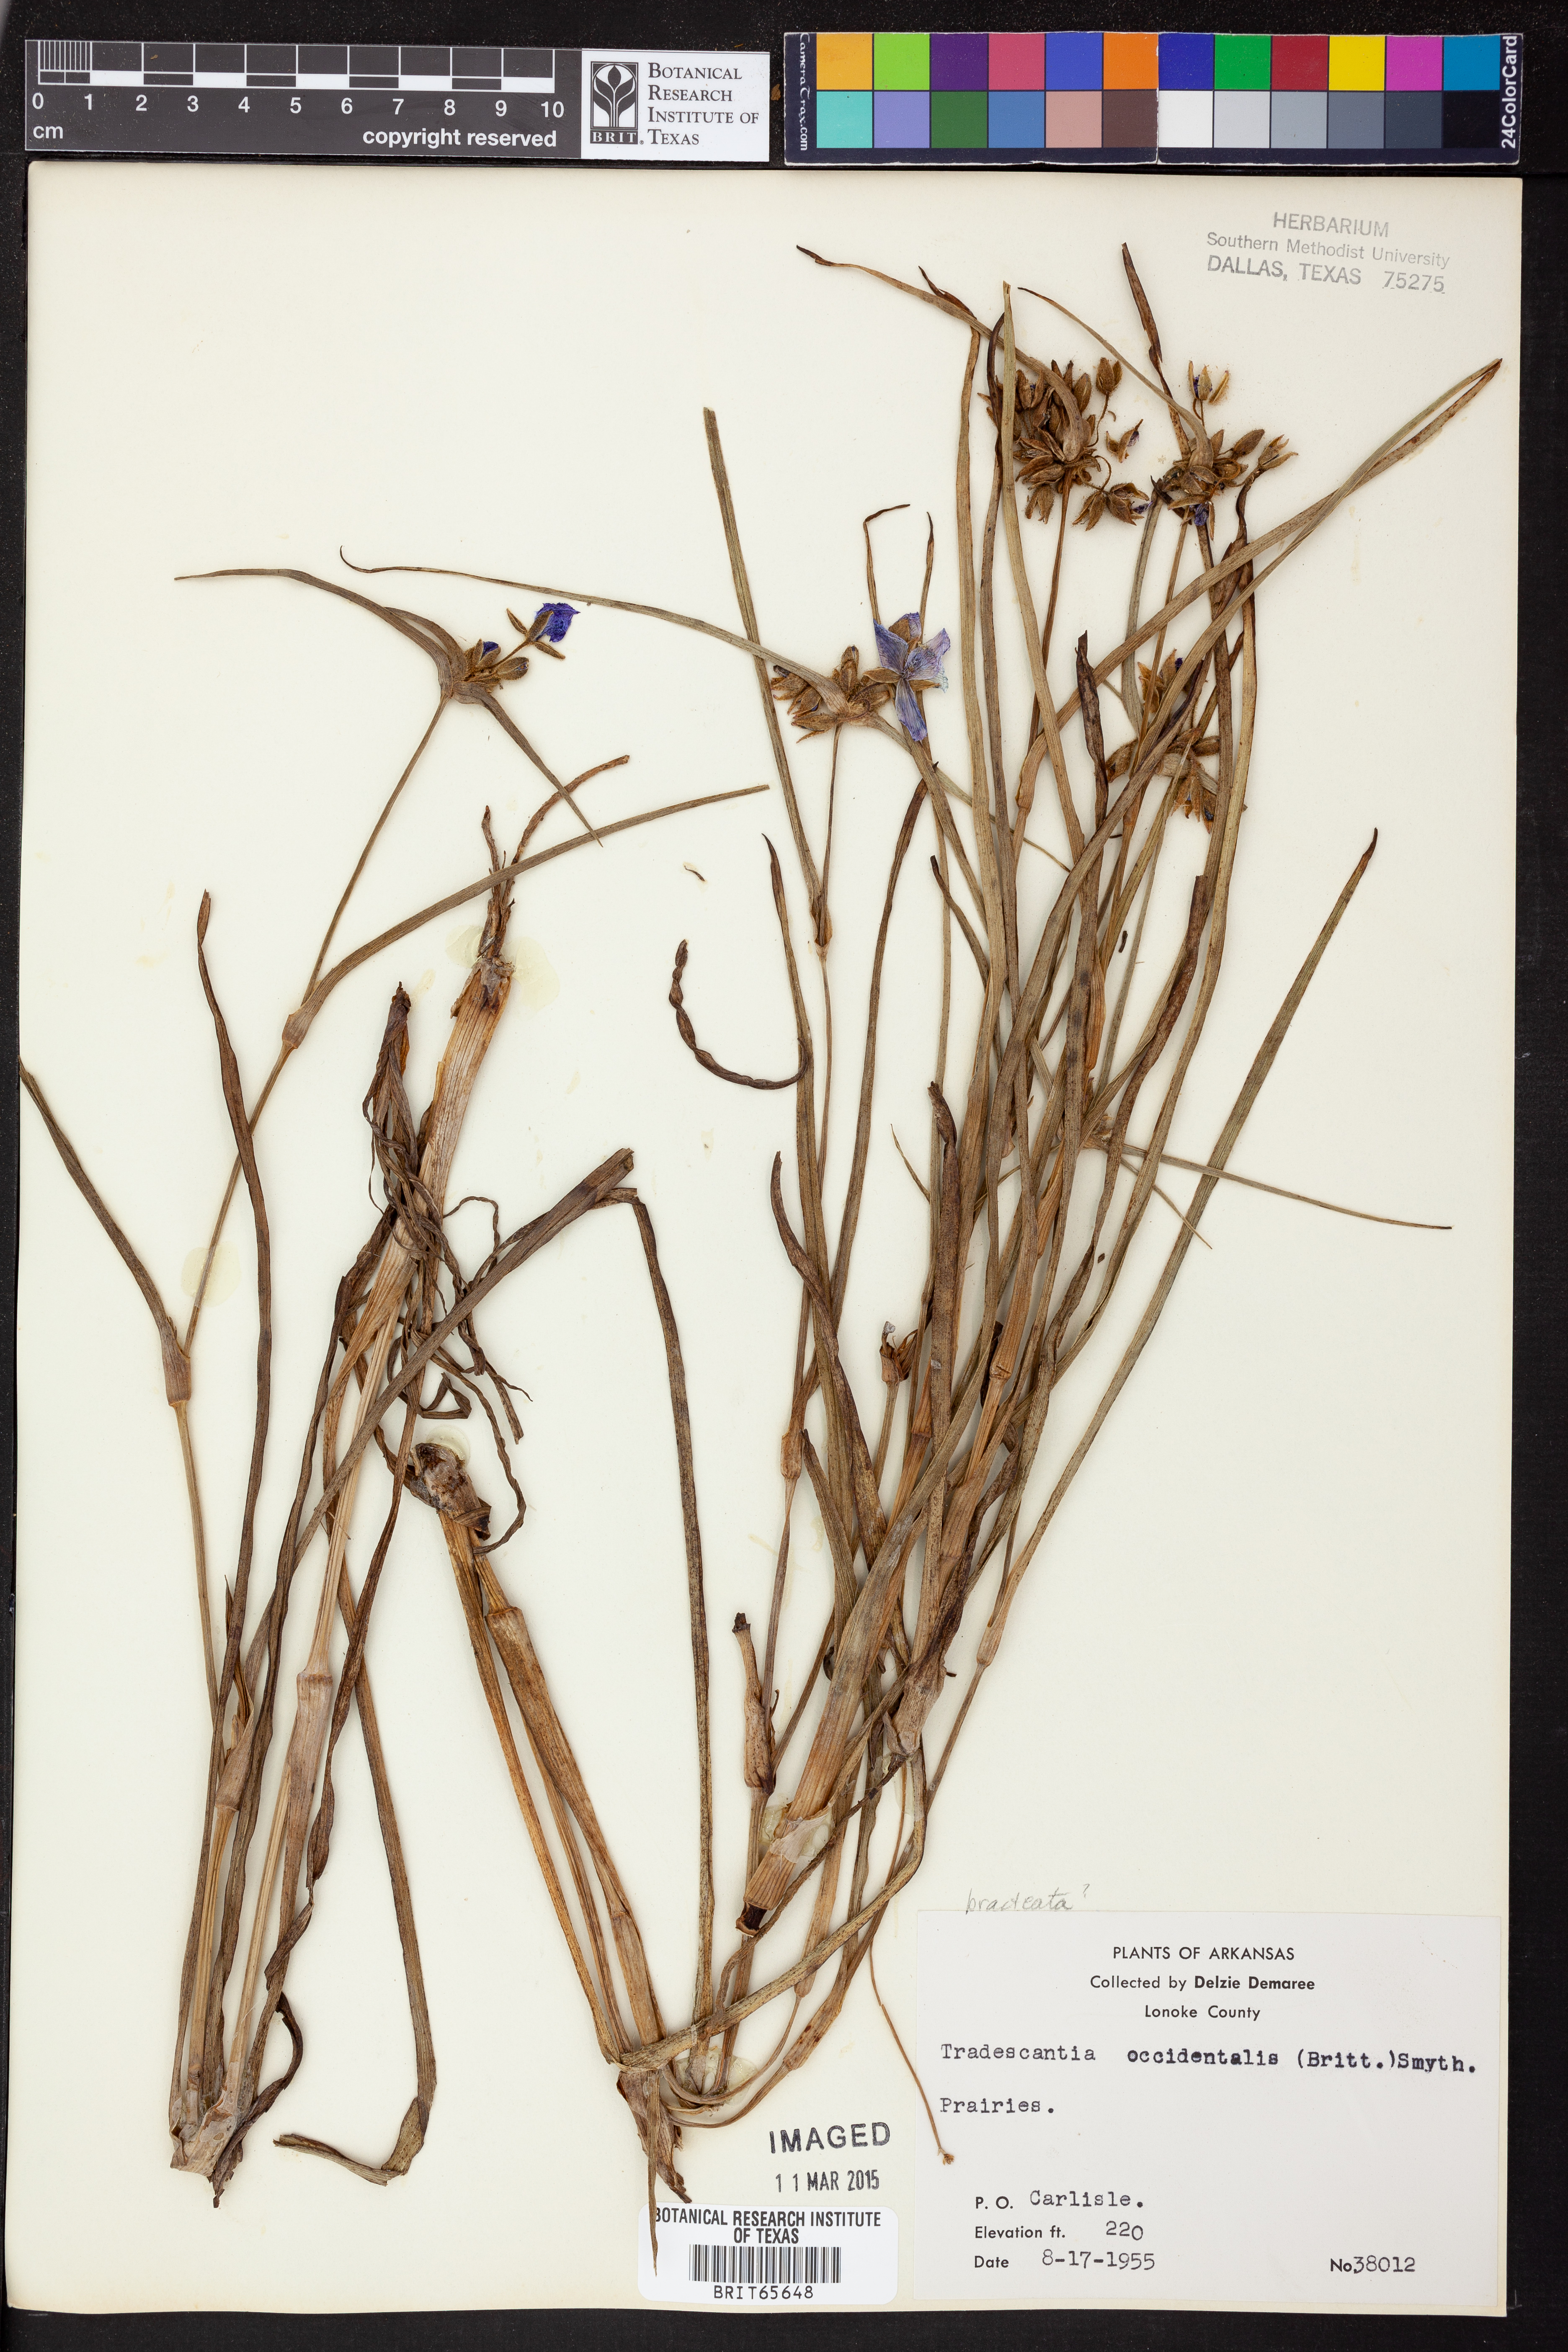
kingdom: Plantae
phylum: Tracheophyta
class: Liliopsida
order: Commelinales
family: Commelinaceae
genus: Tradescantia
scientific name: Tradescantia occidentalis
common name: Prairie spiderwort
